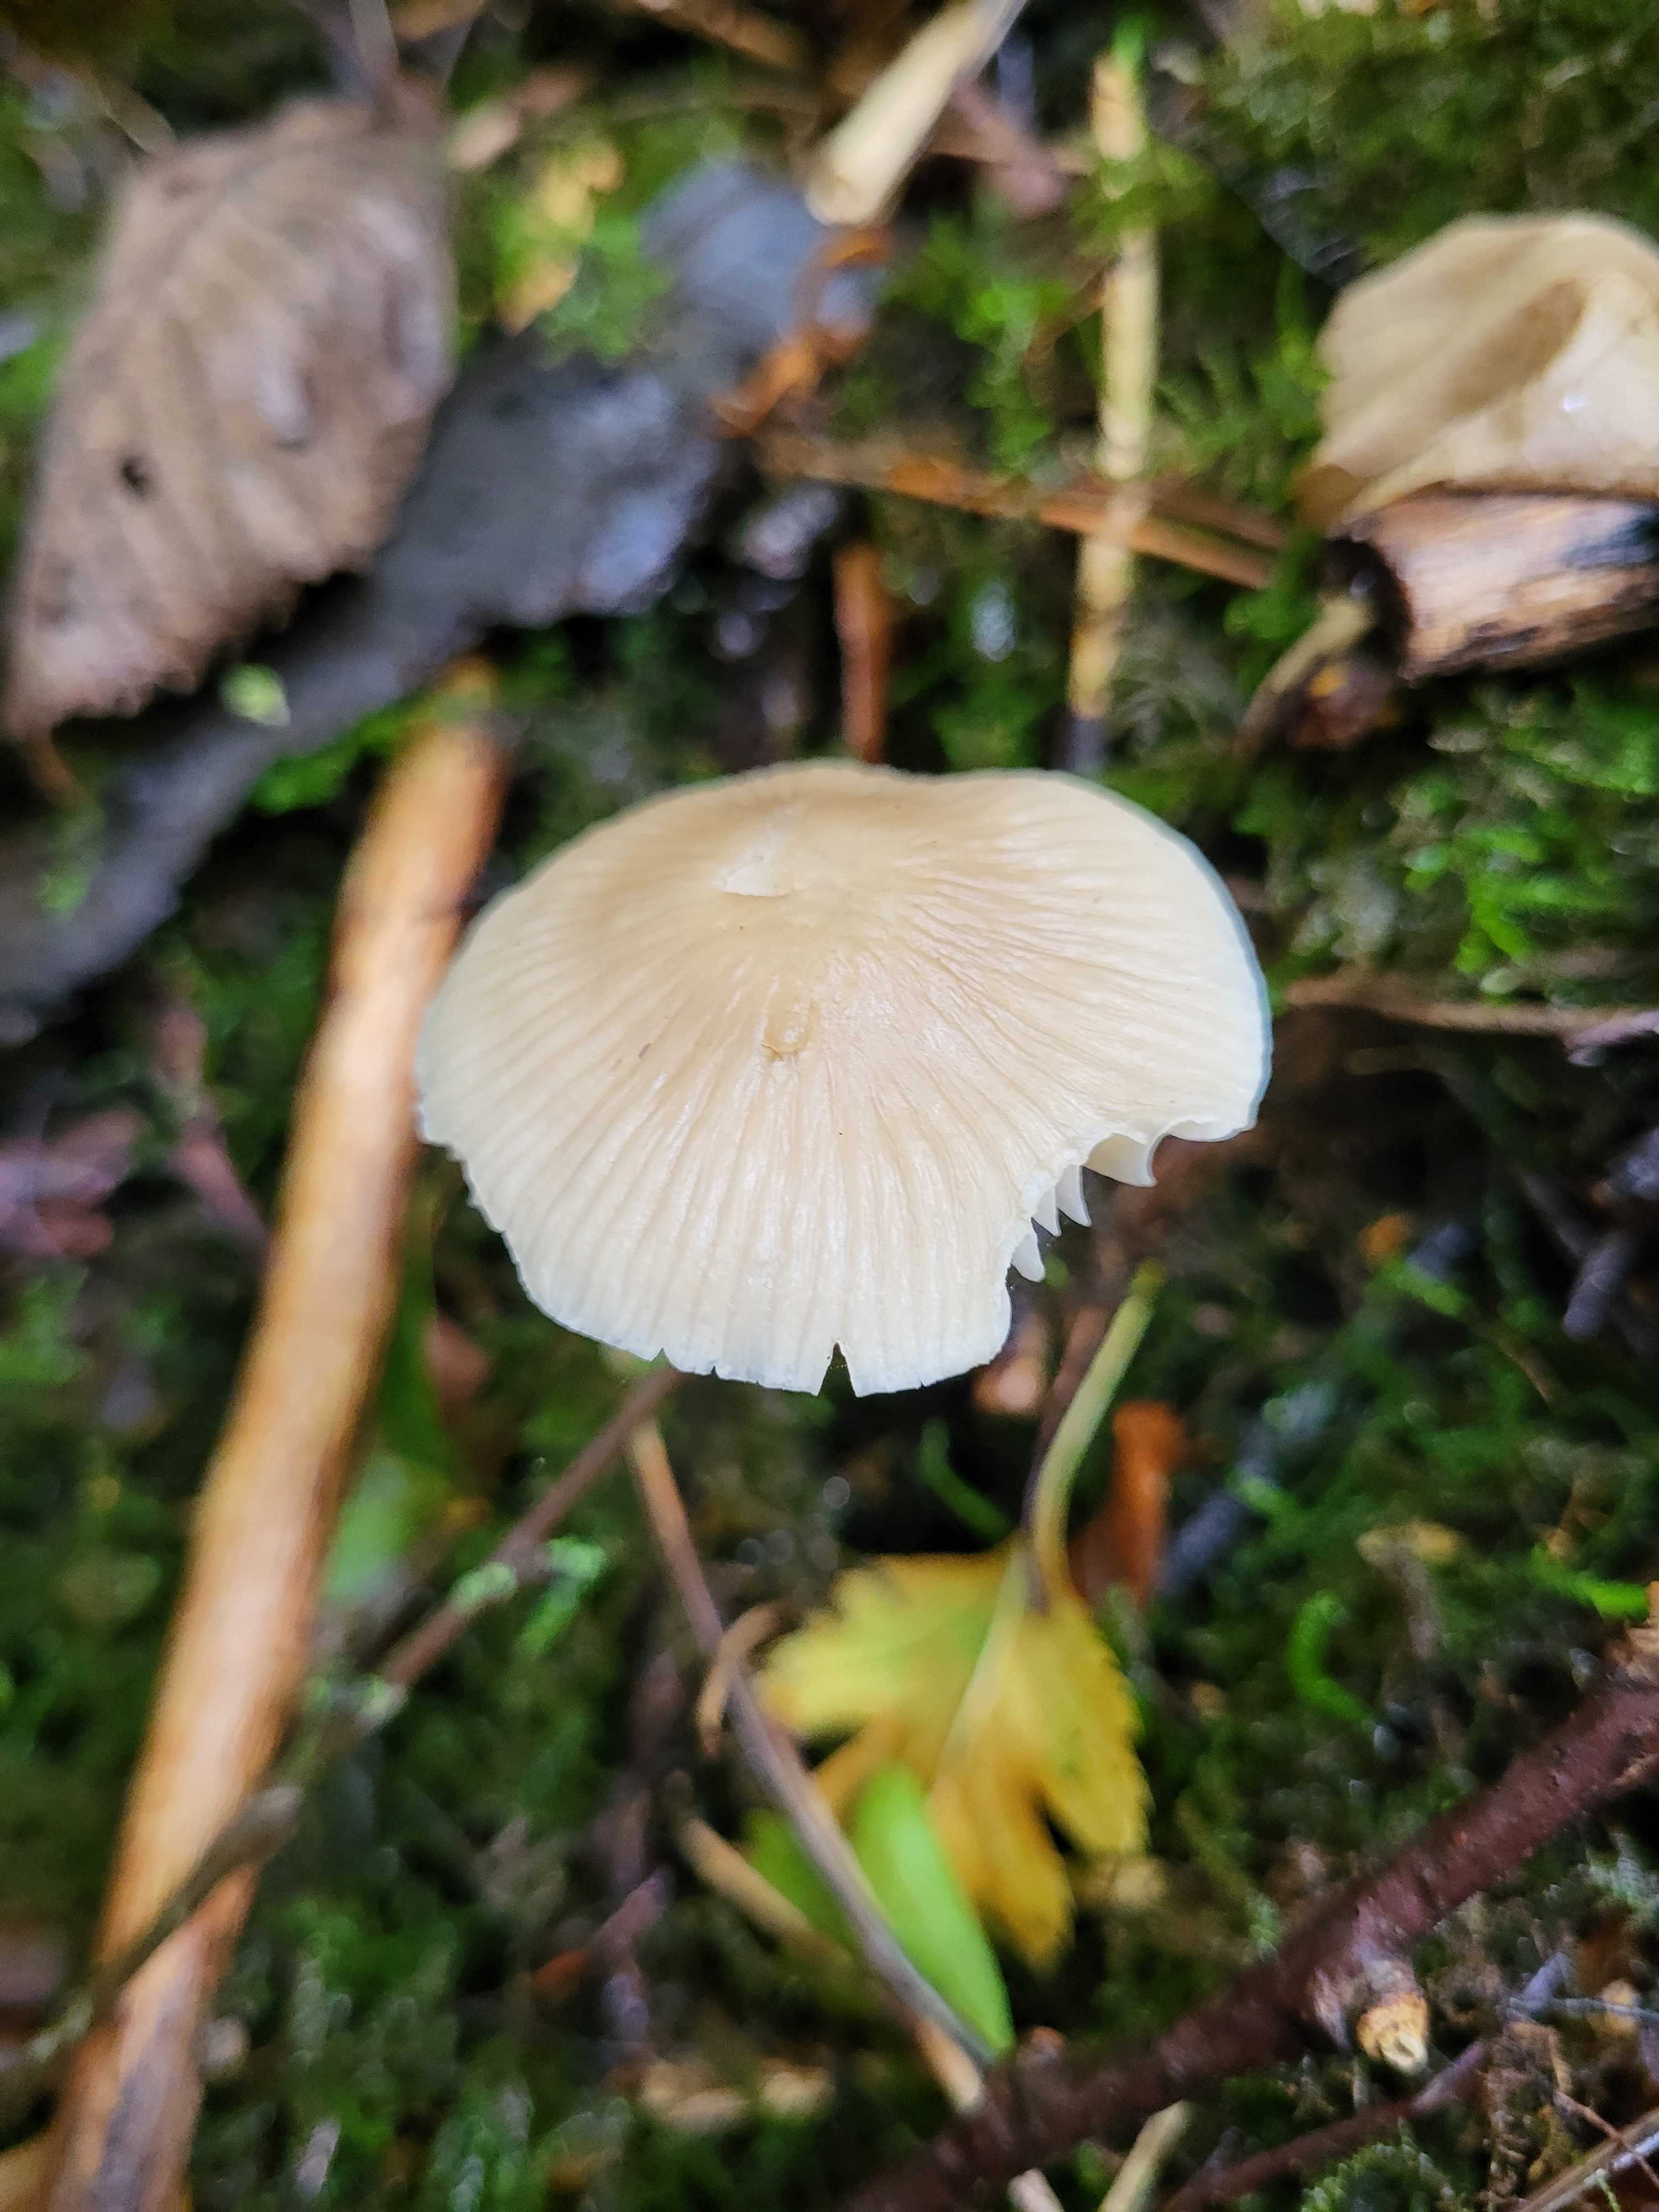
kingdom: Fungi
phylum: Basidiomycota
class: Agaricomycetes
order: Agaricales
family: Mycenaceae
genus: Mycena
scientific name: Mycena galericulata
